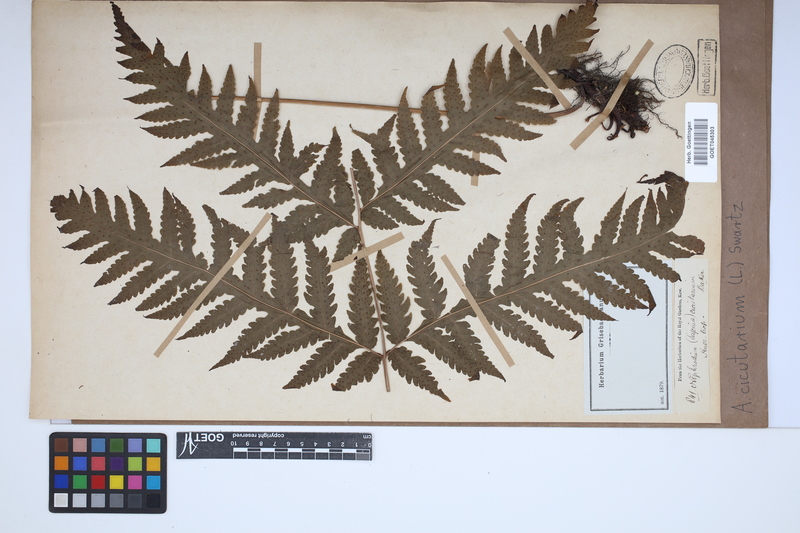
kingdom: Plantae
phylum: Tracheophyta
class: Polypodiopsida
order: Polypodiales
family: Tectariaceae
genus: Tectaria
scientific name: Tectaria cicutaria
